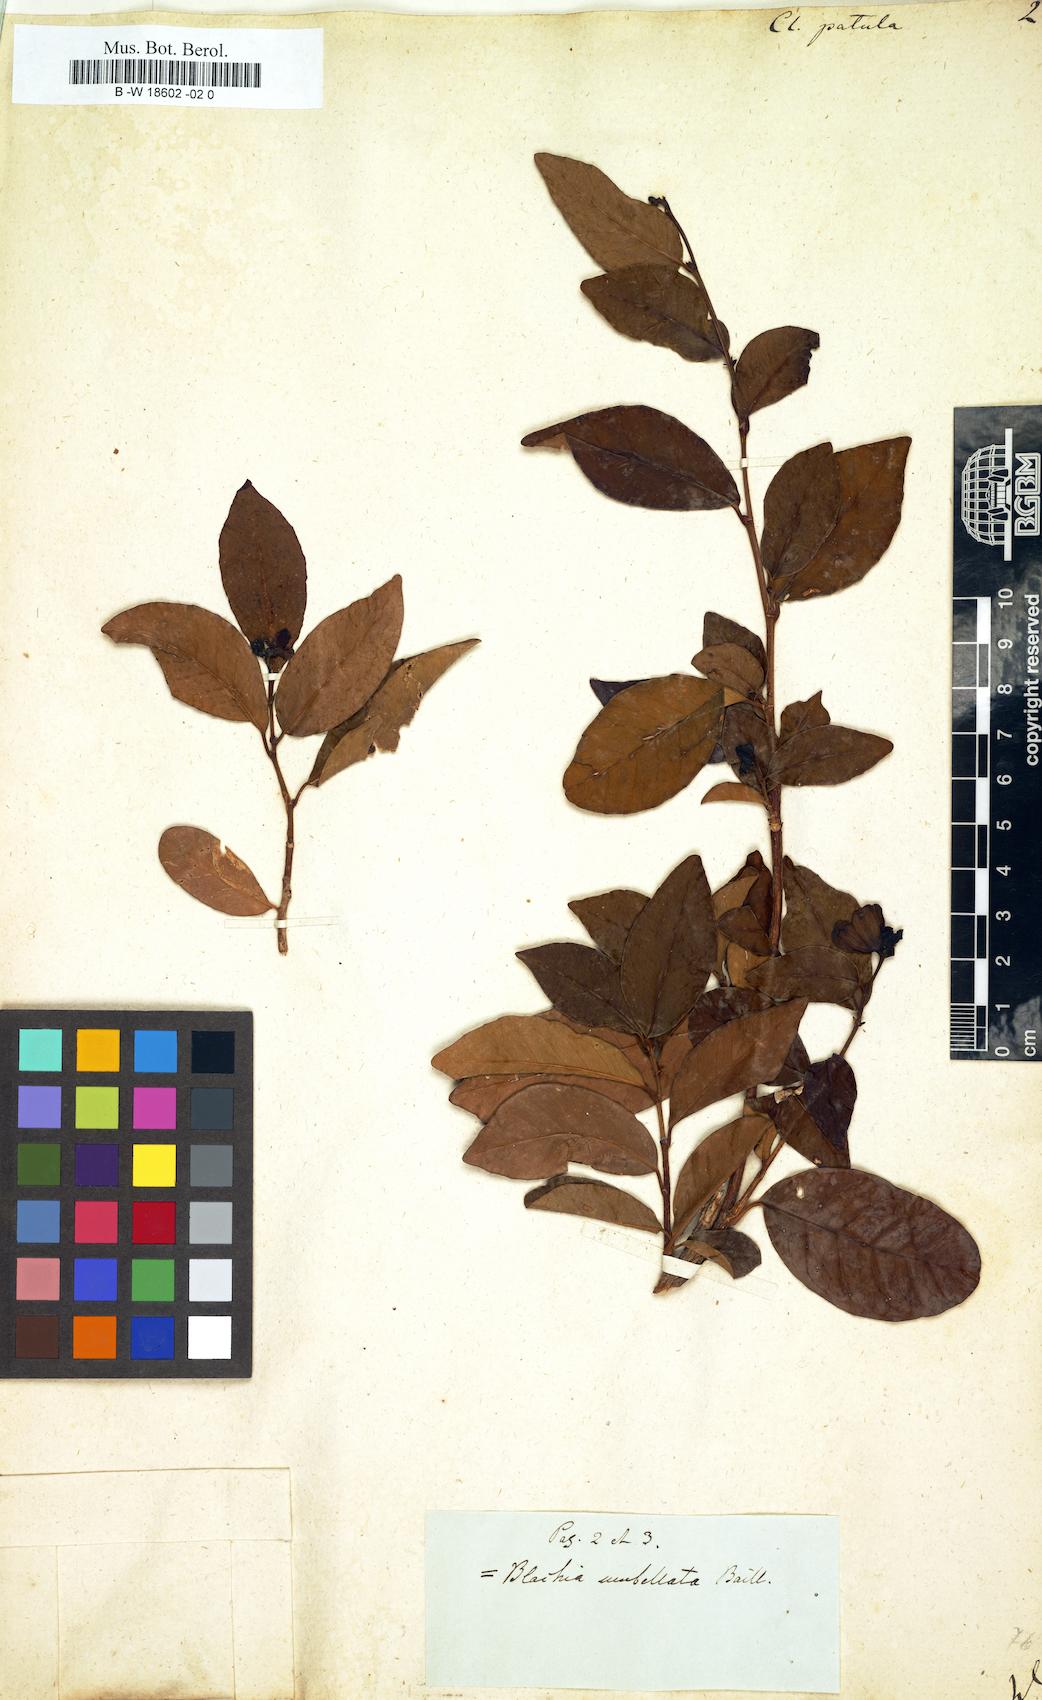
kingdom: Plantae
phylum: Tracheophyta
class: Magnoliopsida
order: Malpighiales
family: Peraceae
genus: Clutia
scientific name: Clutia
